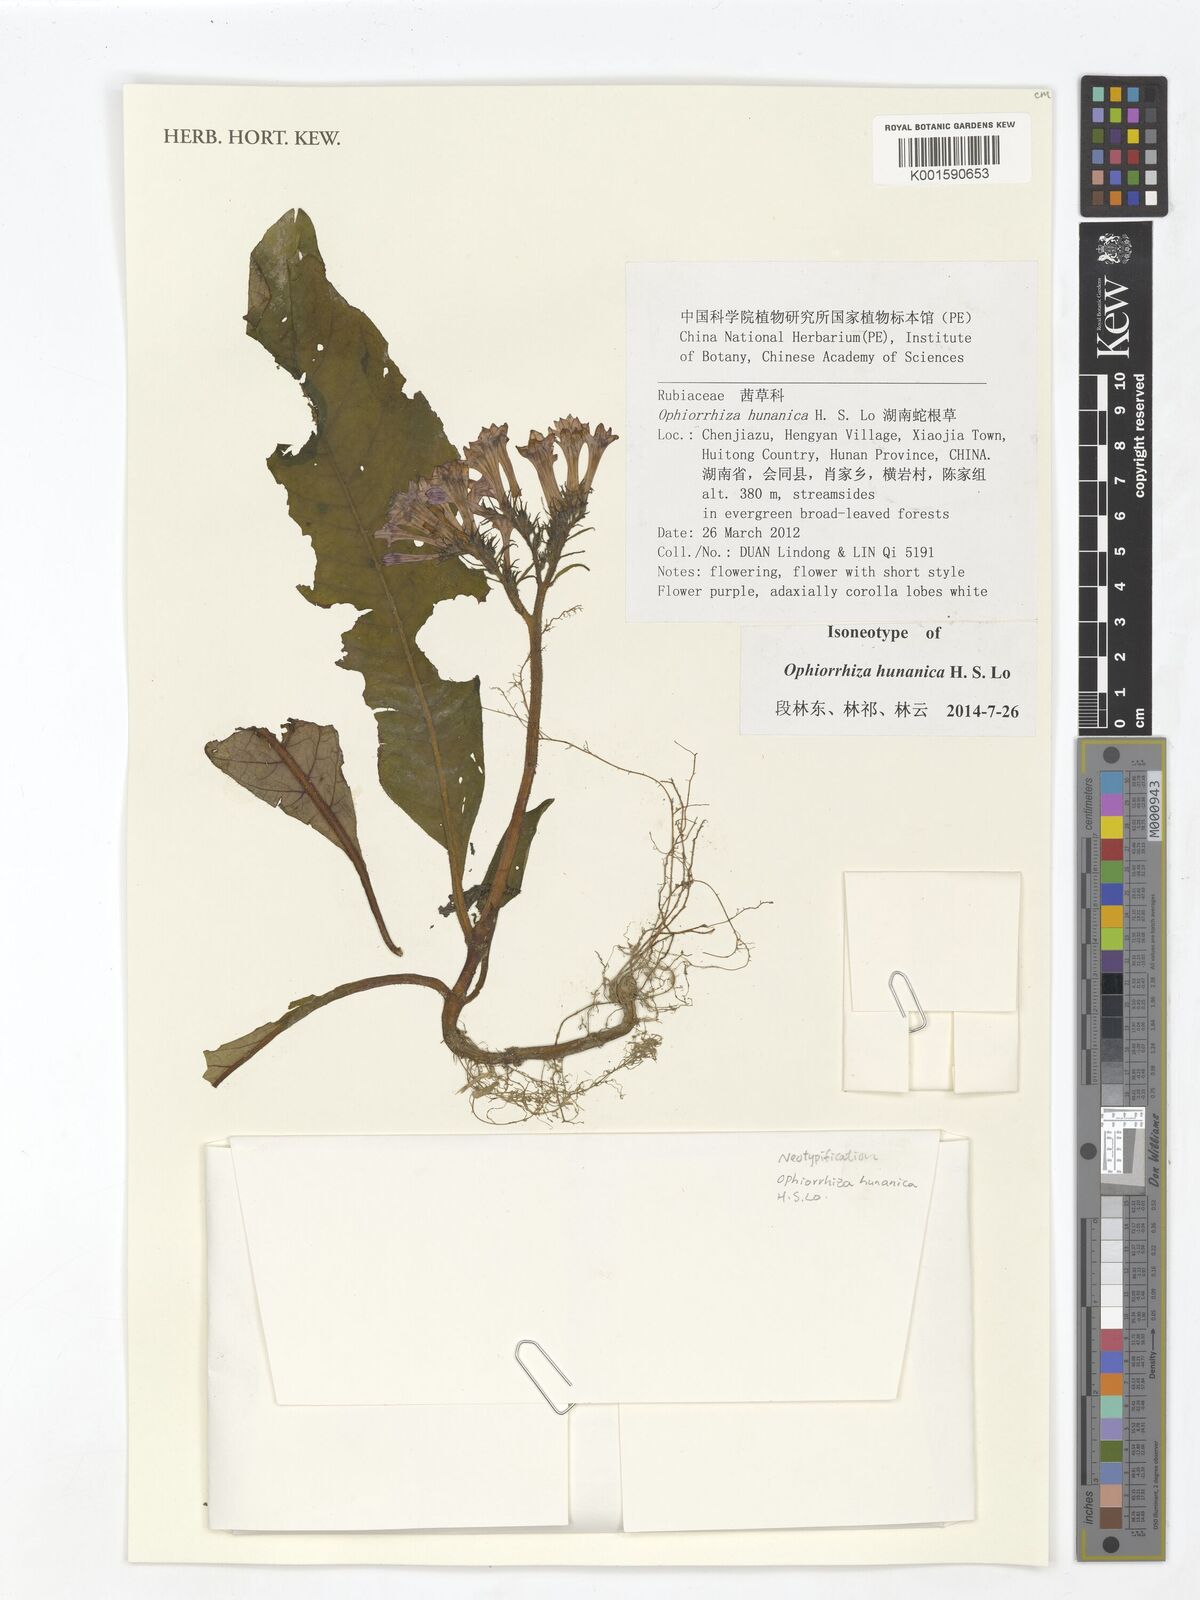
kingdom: Plantae
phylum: Tracheophyta
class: Magnoliopsida
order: Gentianales
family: Rubiaceae
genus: Ophiorrhiza
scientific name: Ophiorrhiza hunanica
